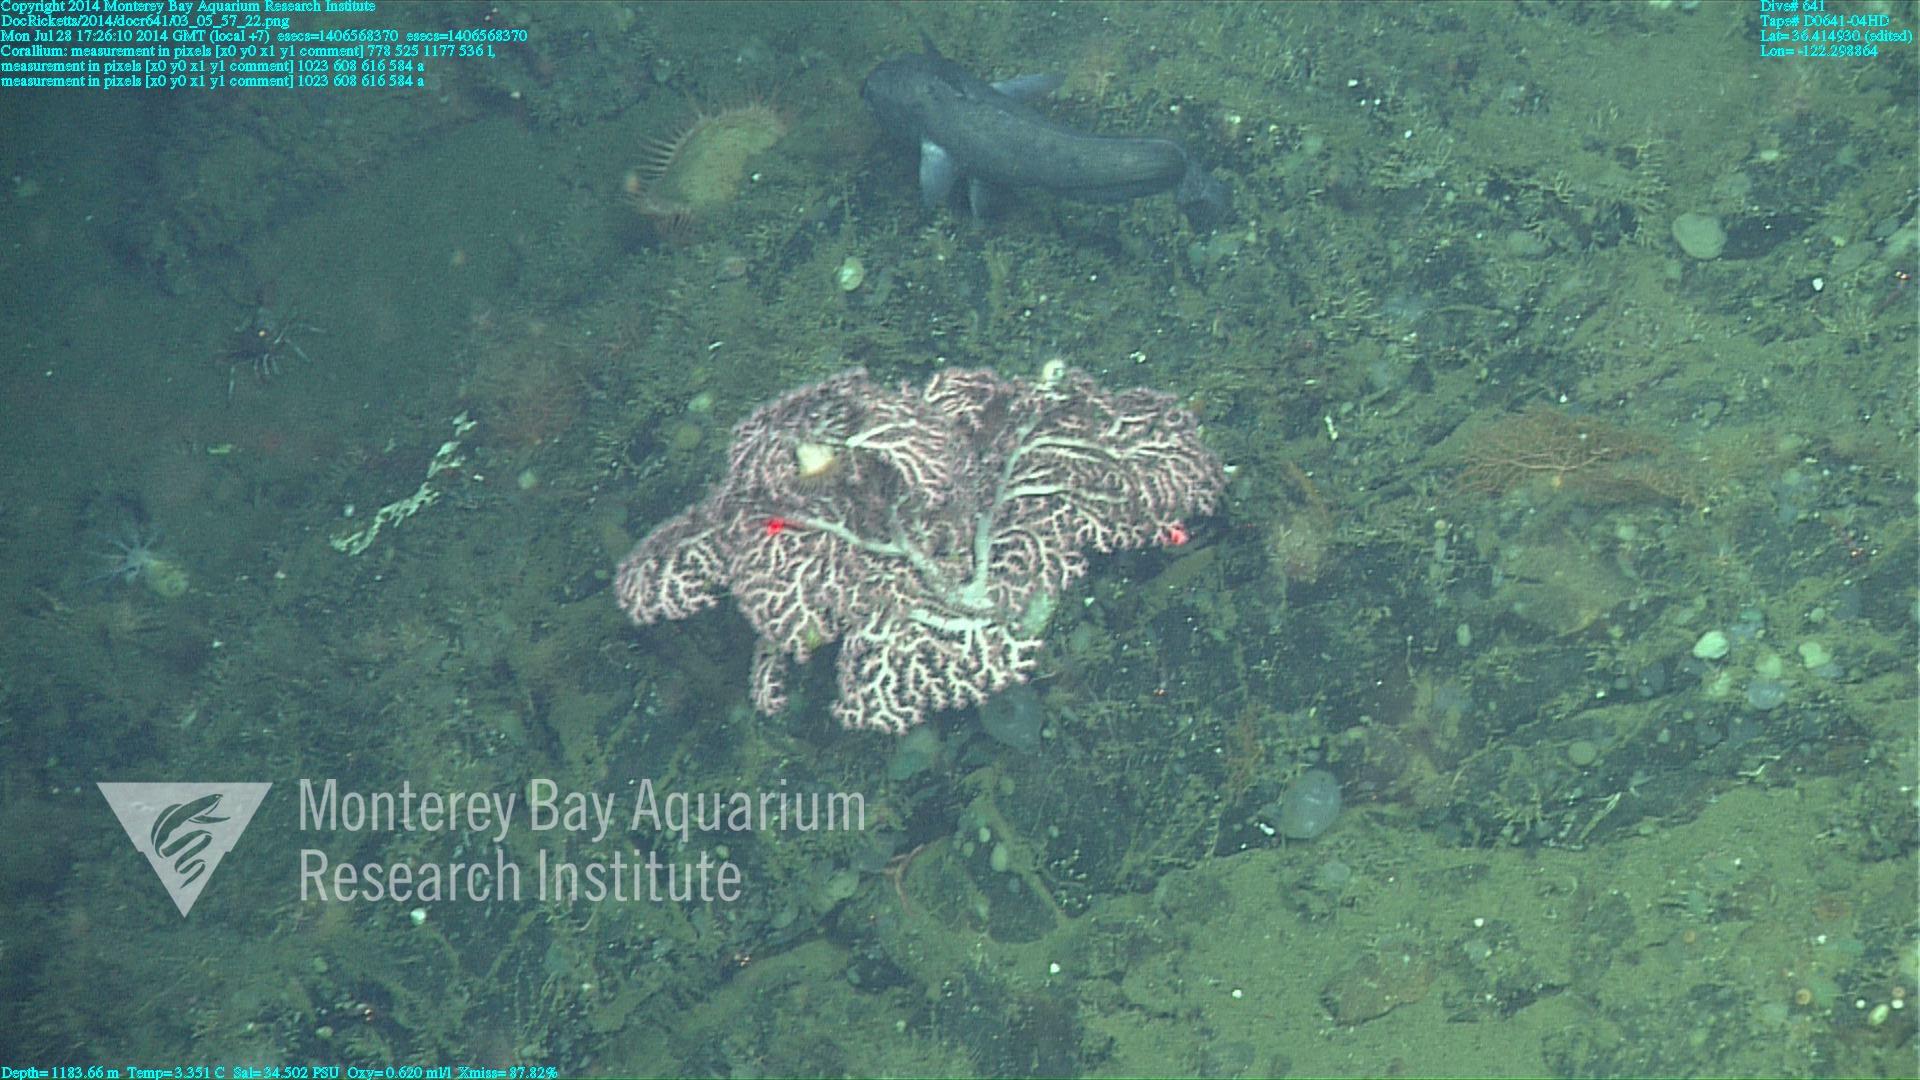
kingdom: Animalia
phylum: Cnidaria
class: Anthozoa
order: Scleralcyonacea
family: Coralliidae
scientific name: Coralliidae
